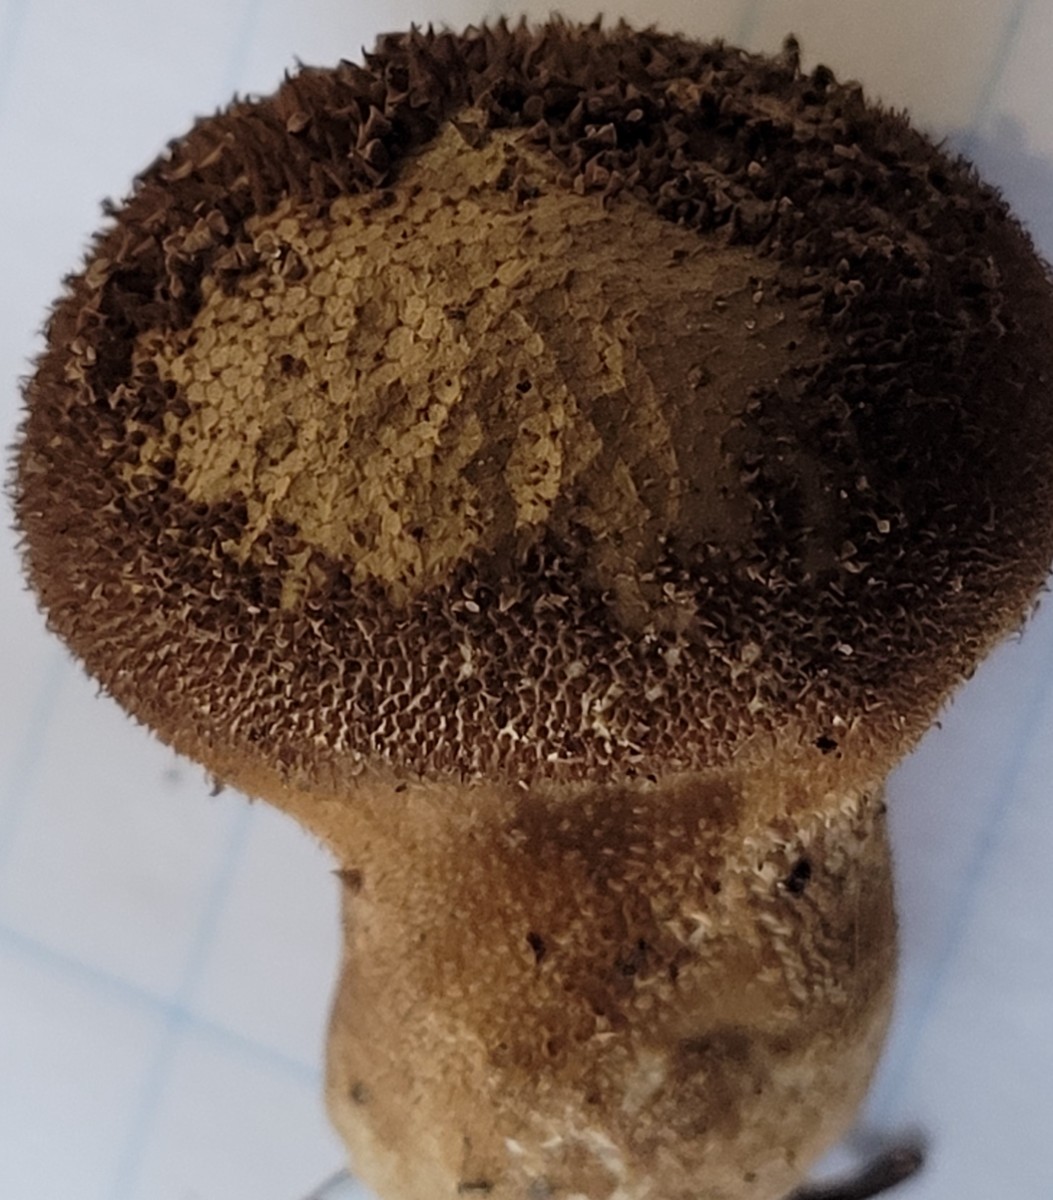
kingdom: Fungi
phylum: Basidiomycota
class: Agaricomycetes
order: Agaricales
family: Lycoperdaceae
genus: Lycoperdon
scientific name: Lycoperdon nigrescens
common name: sortagtig støvbold
